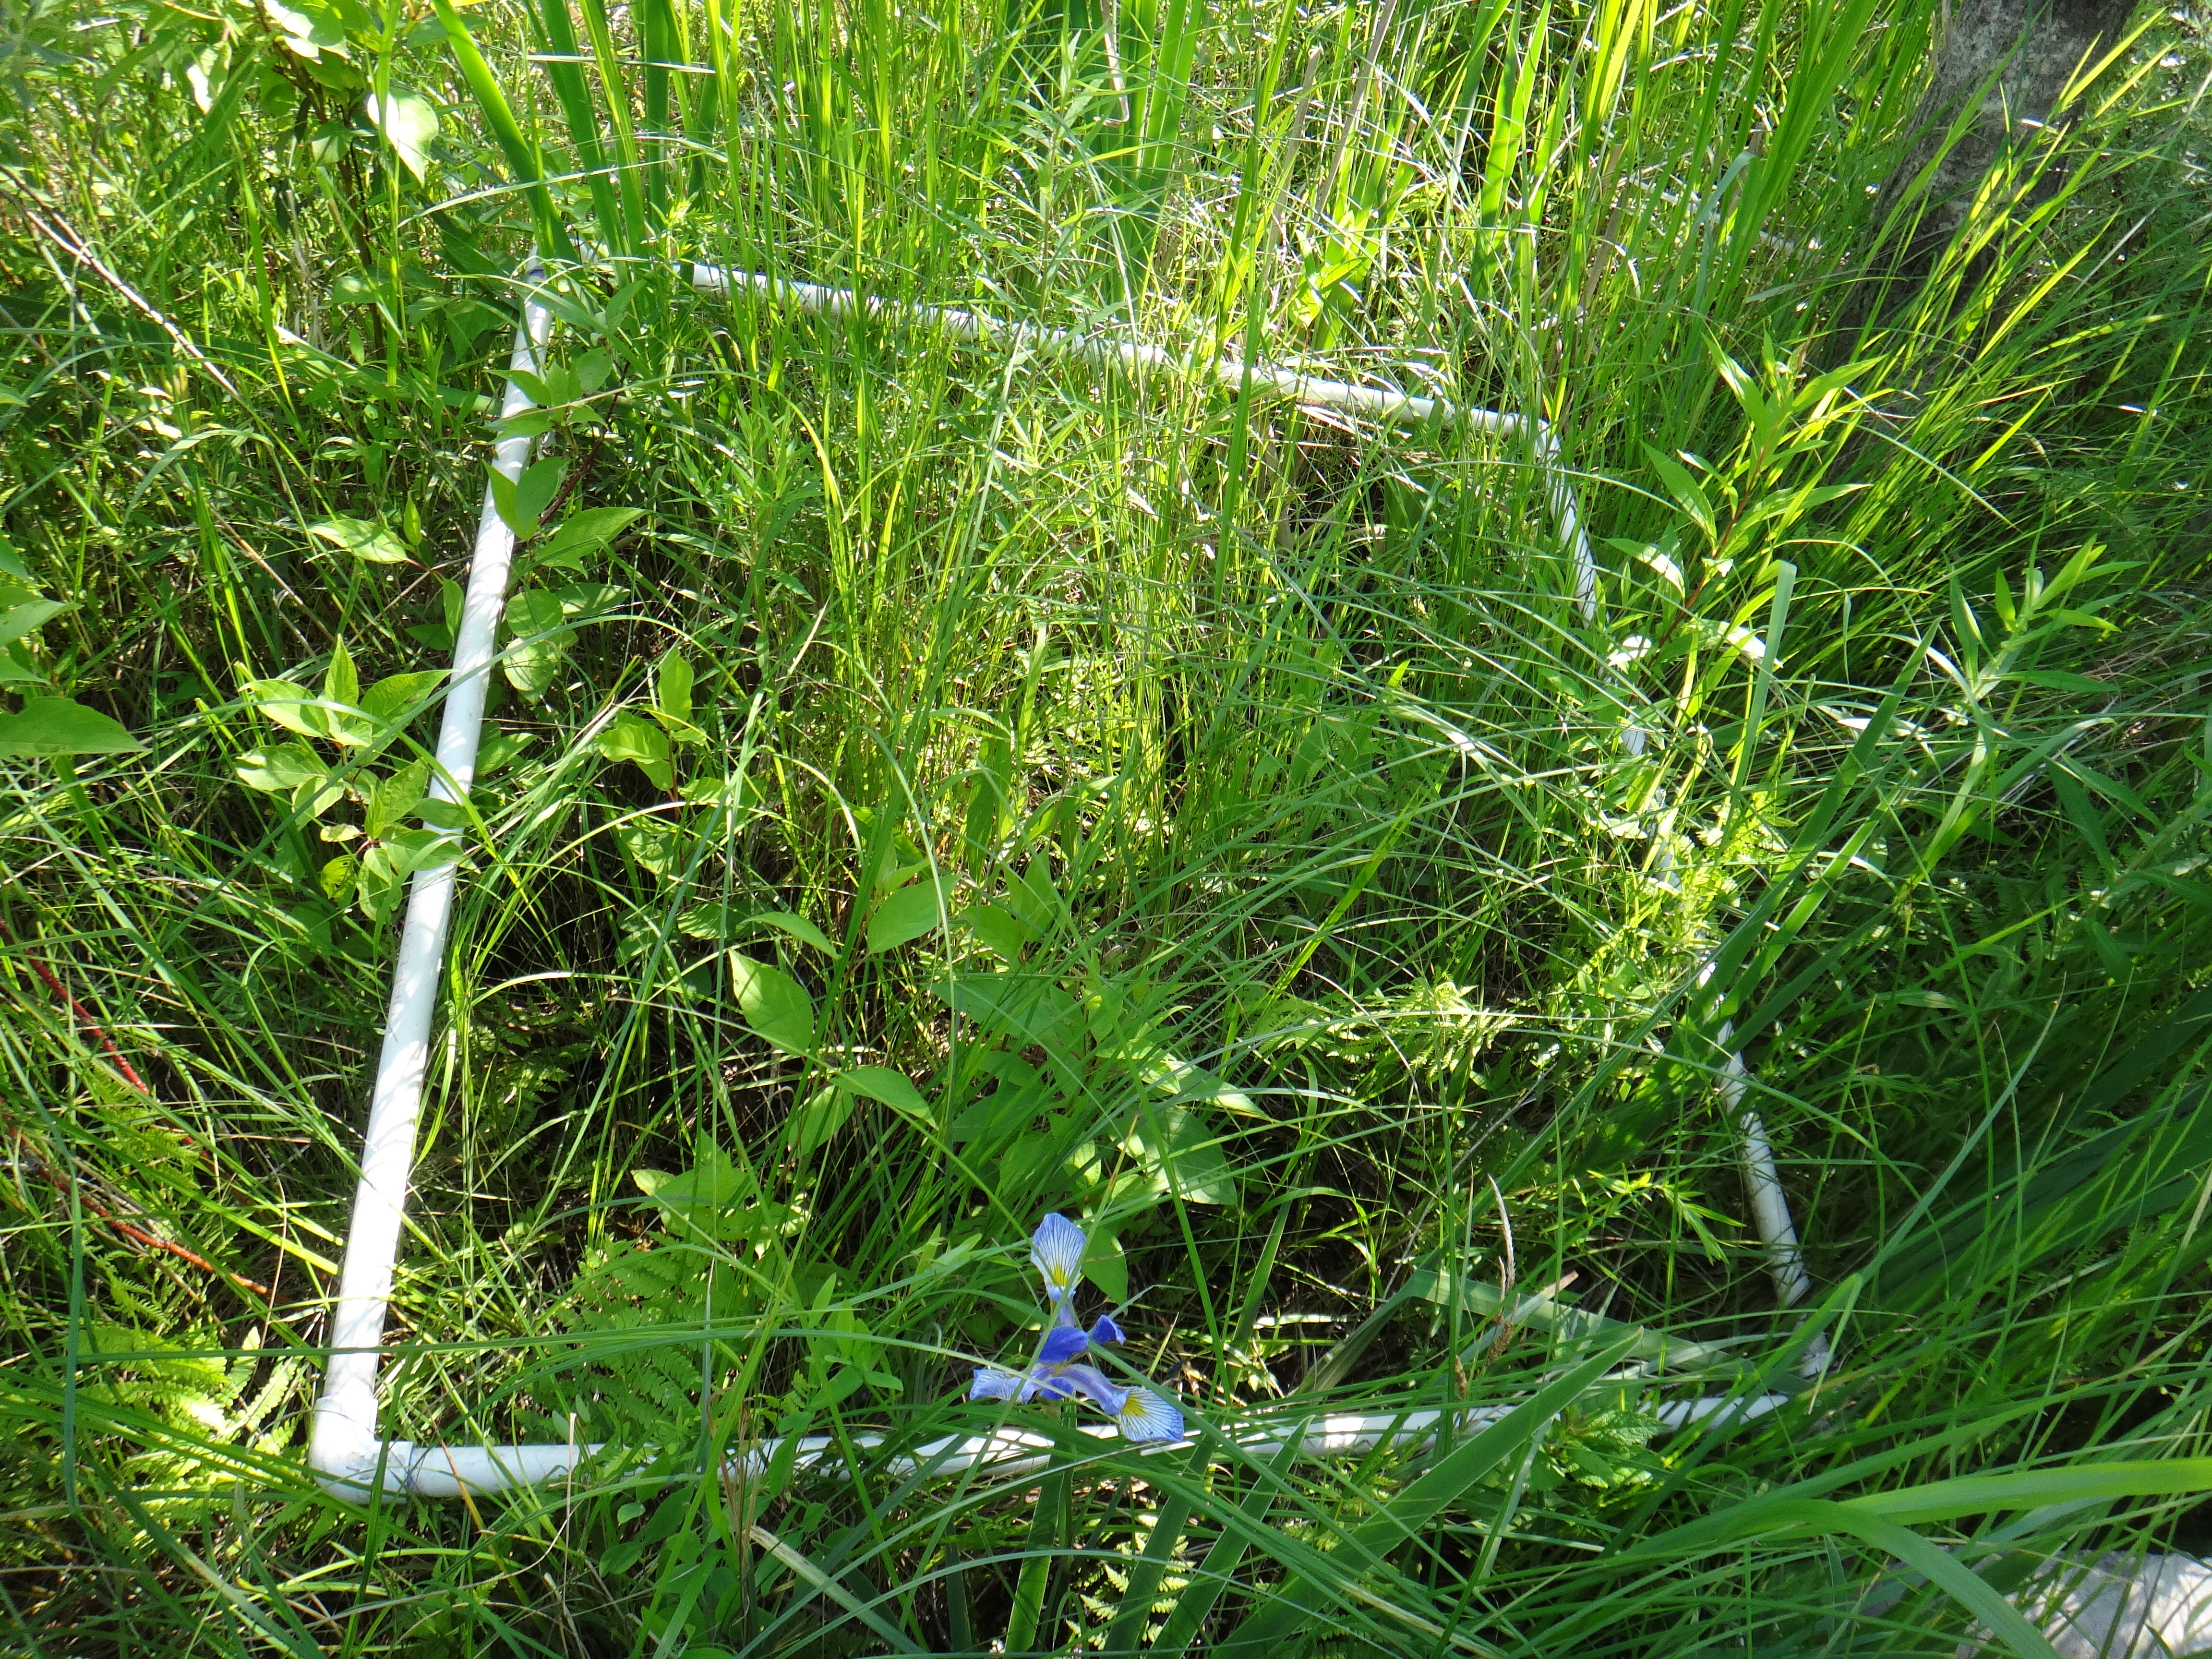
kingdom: Plantae
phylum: Tracheophyta
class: Magnoliopsida
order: Rosales
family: Rosaceae
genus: Dasiphora
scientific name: Dasiphora fruticosa
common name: Shrubby cinquefoil
